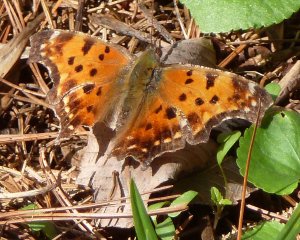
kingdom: Animalia
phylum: Arthropoda
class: Insecta
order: Lepidoptera
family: Nymphalidae
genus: Polygonia
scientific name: Polygonia comma
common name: Eastern Comma
